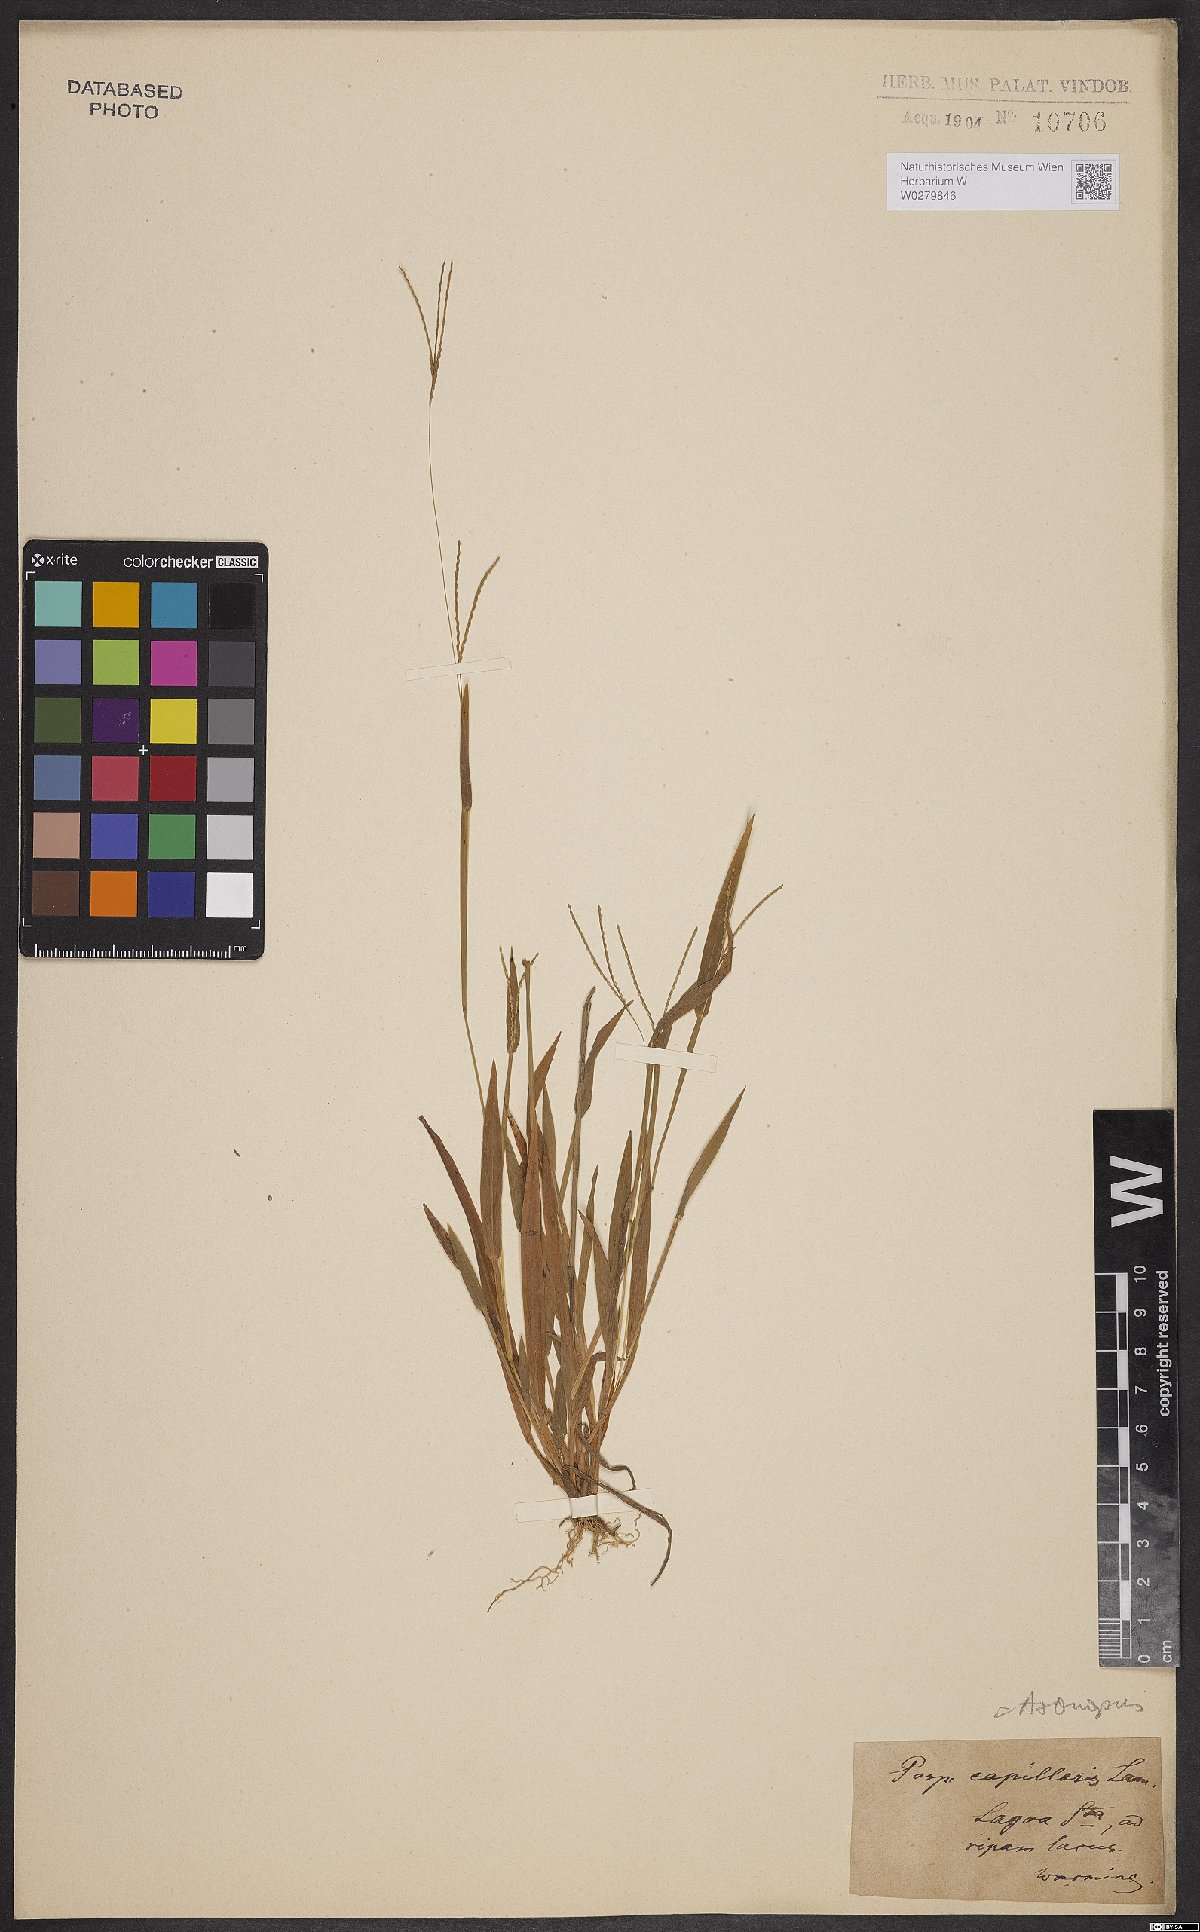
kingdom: Plantae
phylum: Tracheophyta
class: Liliopsida
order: Poales
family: Poaceae
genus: Axonopus
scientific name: Axonopus capillaris
